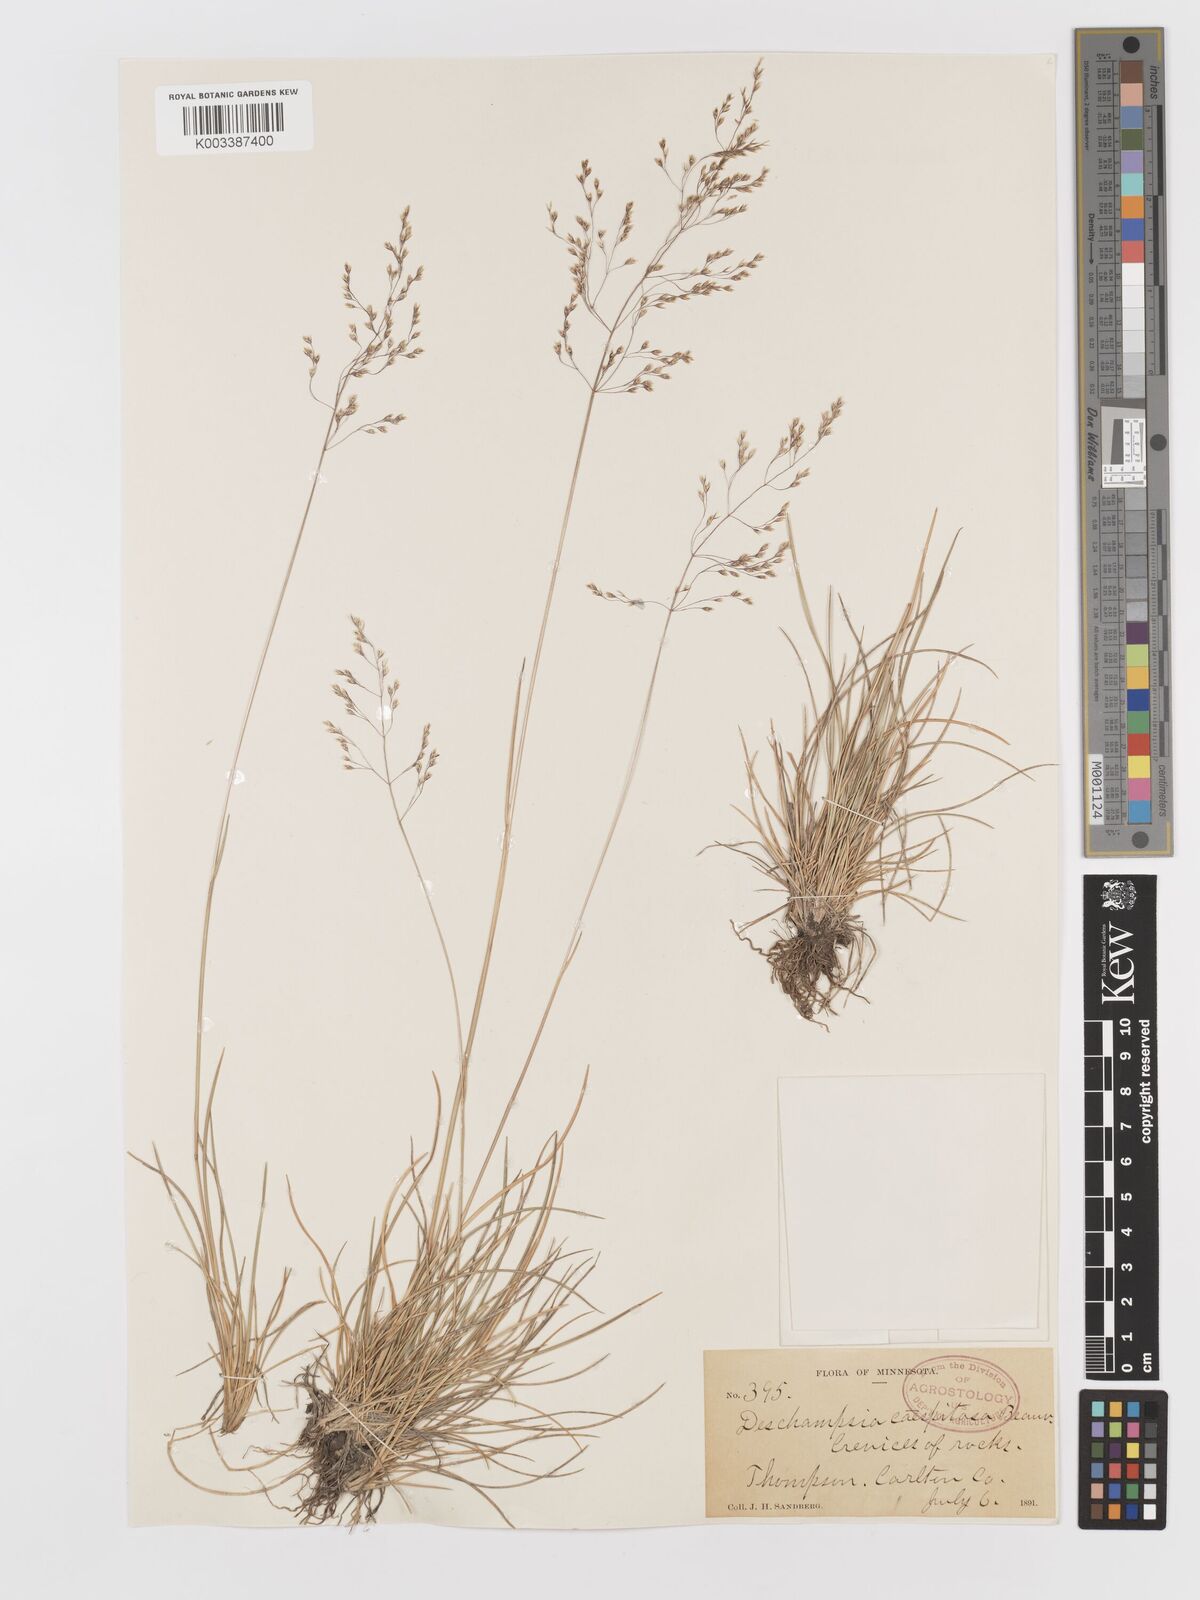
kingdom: Plantae
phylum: Tracheophyta
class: Liliopsida
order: Poales
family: Poaceae
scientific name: Poaceae
